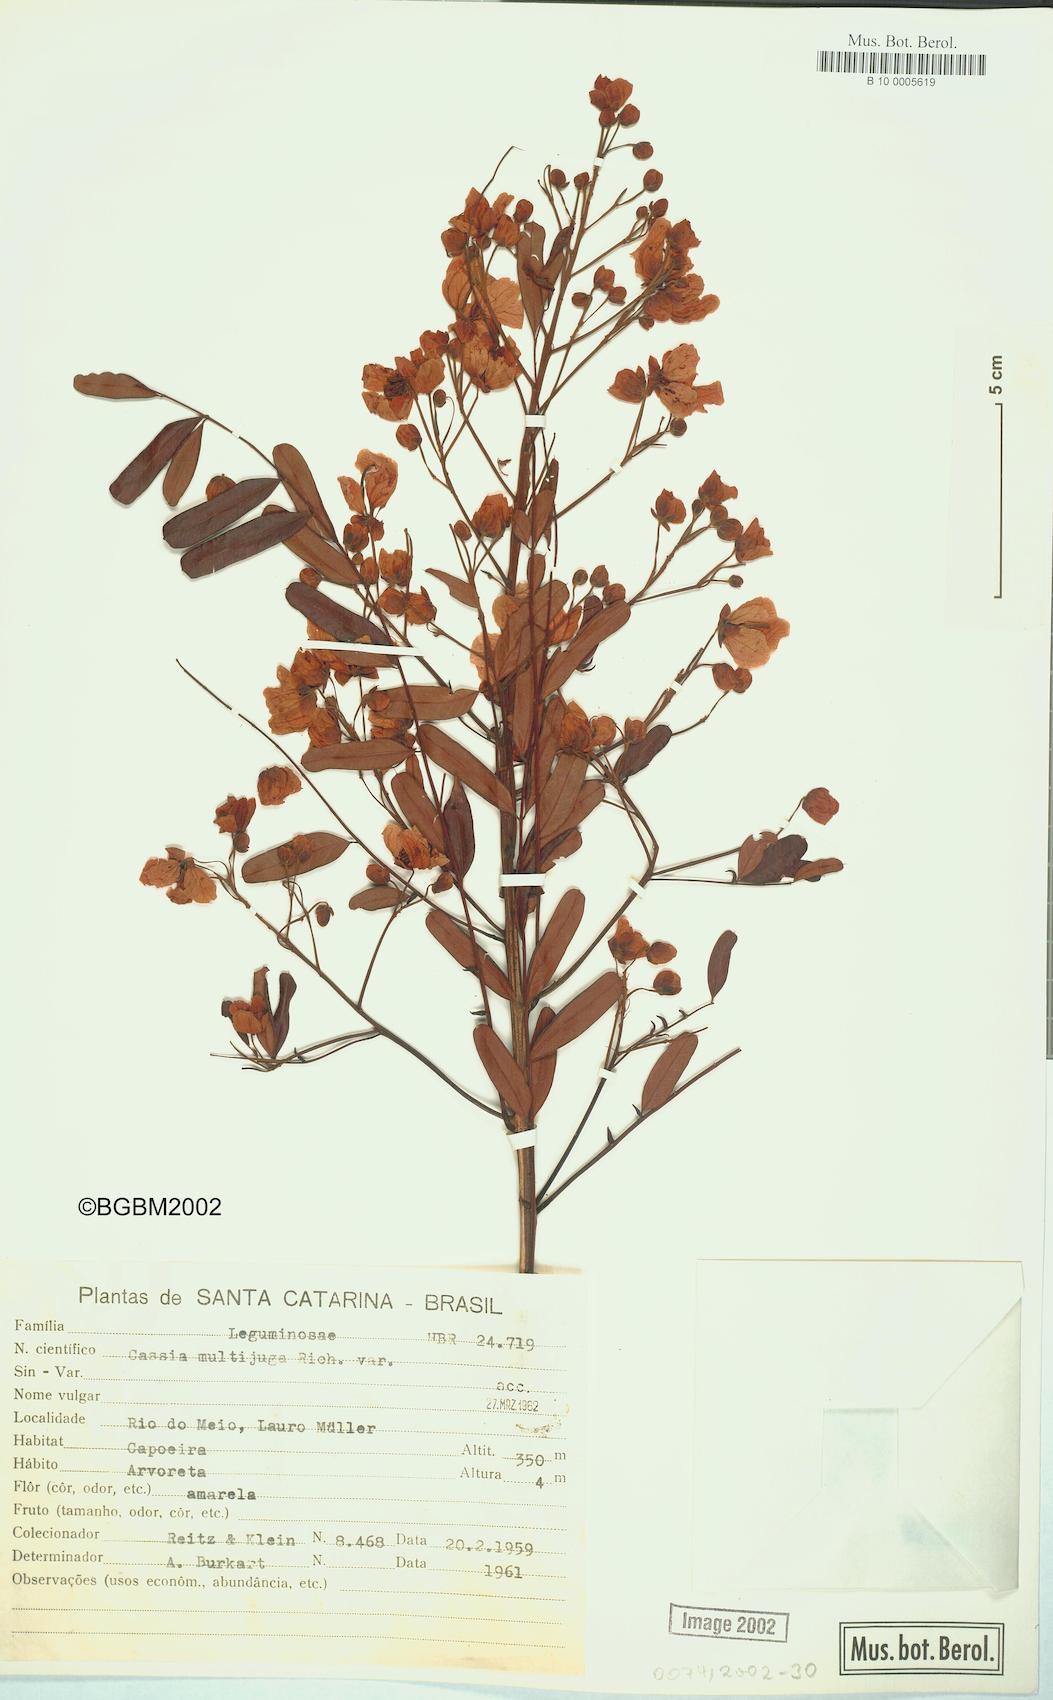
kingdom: Plantae
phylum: Tracheophyta
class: Magnoliopsida
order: Fabales
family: Fabaceae
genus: Senna
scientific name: Senna multijuga
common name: False sicklepod
